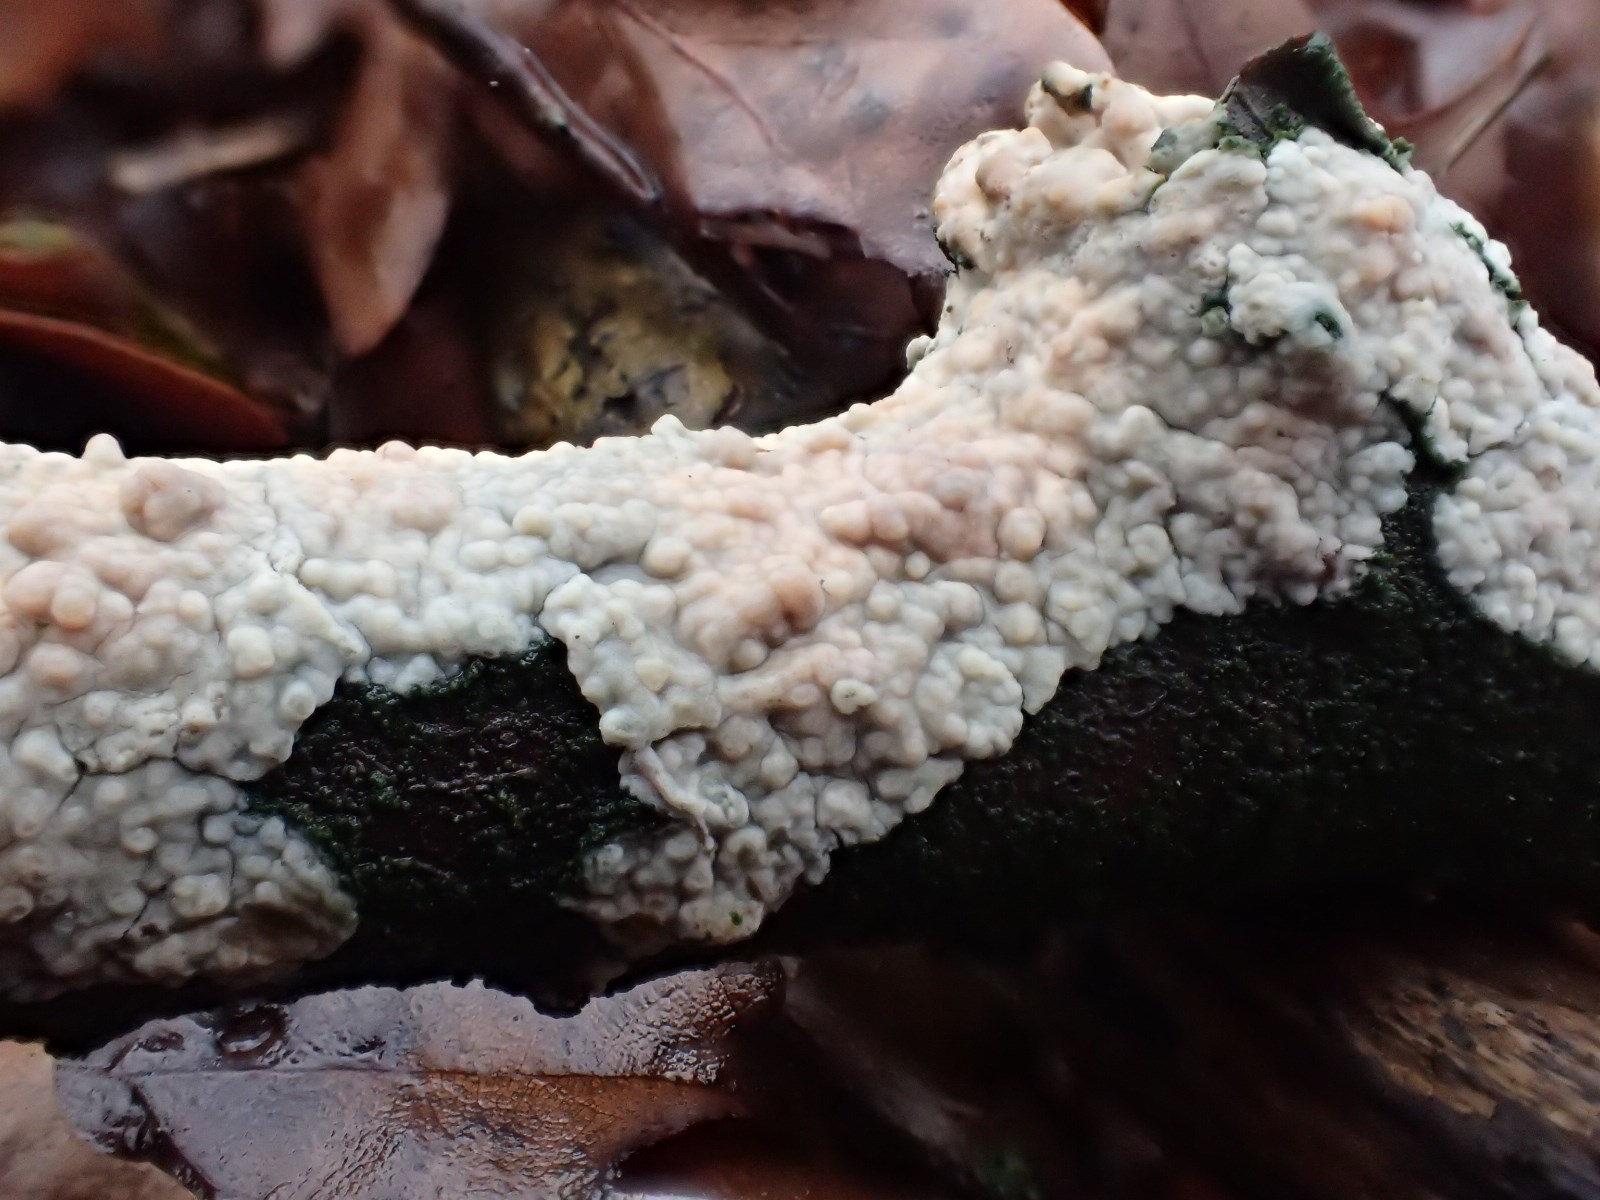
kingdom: Fungi
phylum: Basidiomycota
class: Agaricomycetes
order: Corticiales
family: Corticiaceae
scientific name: Corticiaceae
